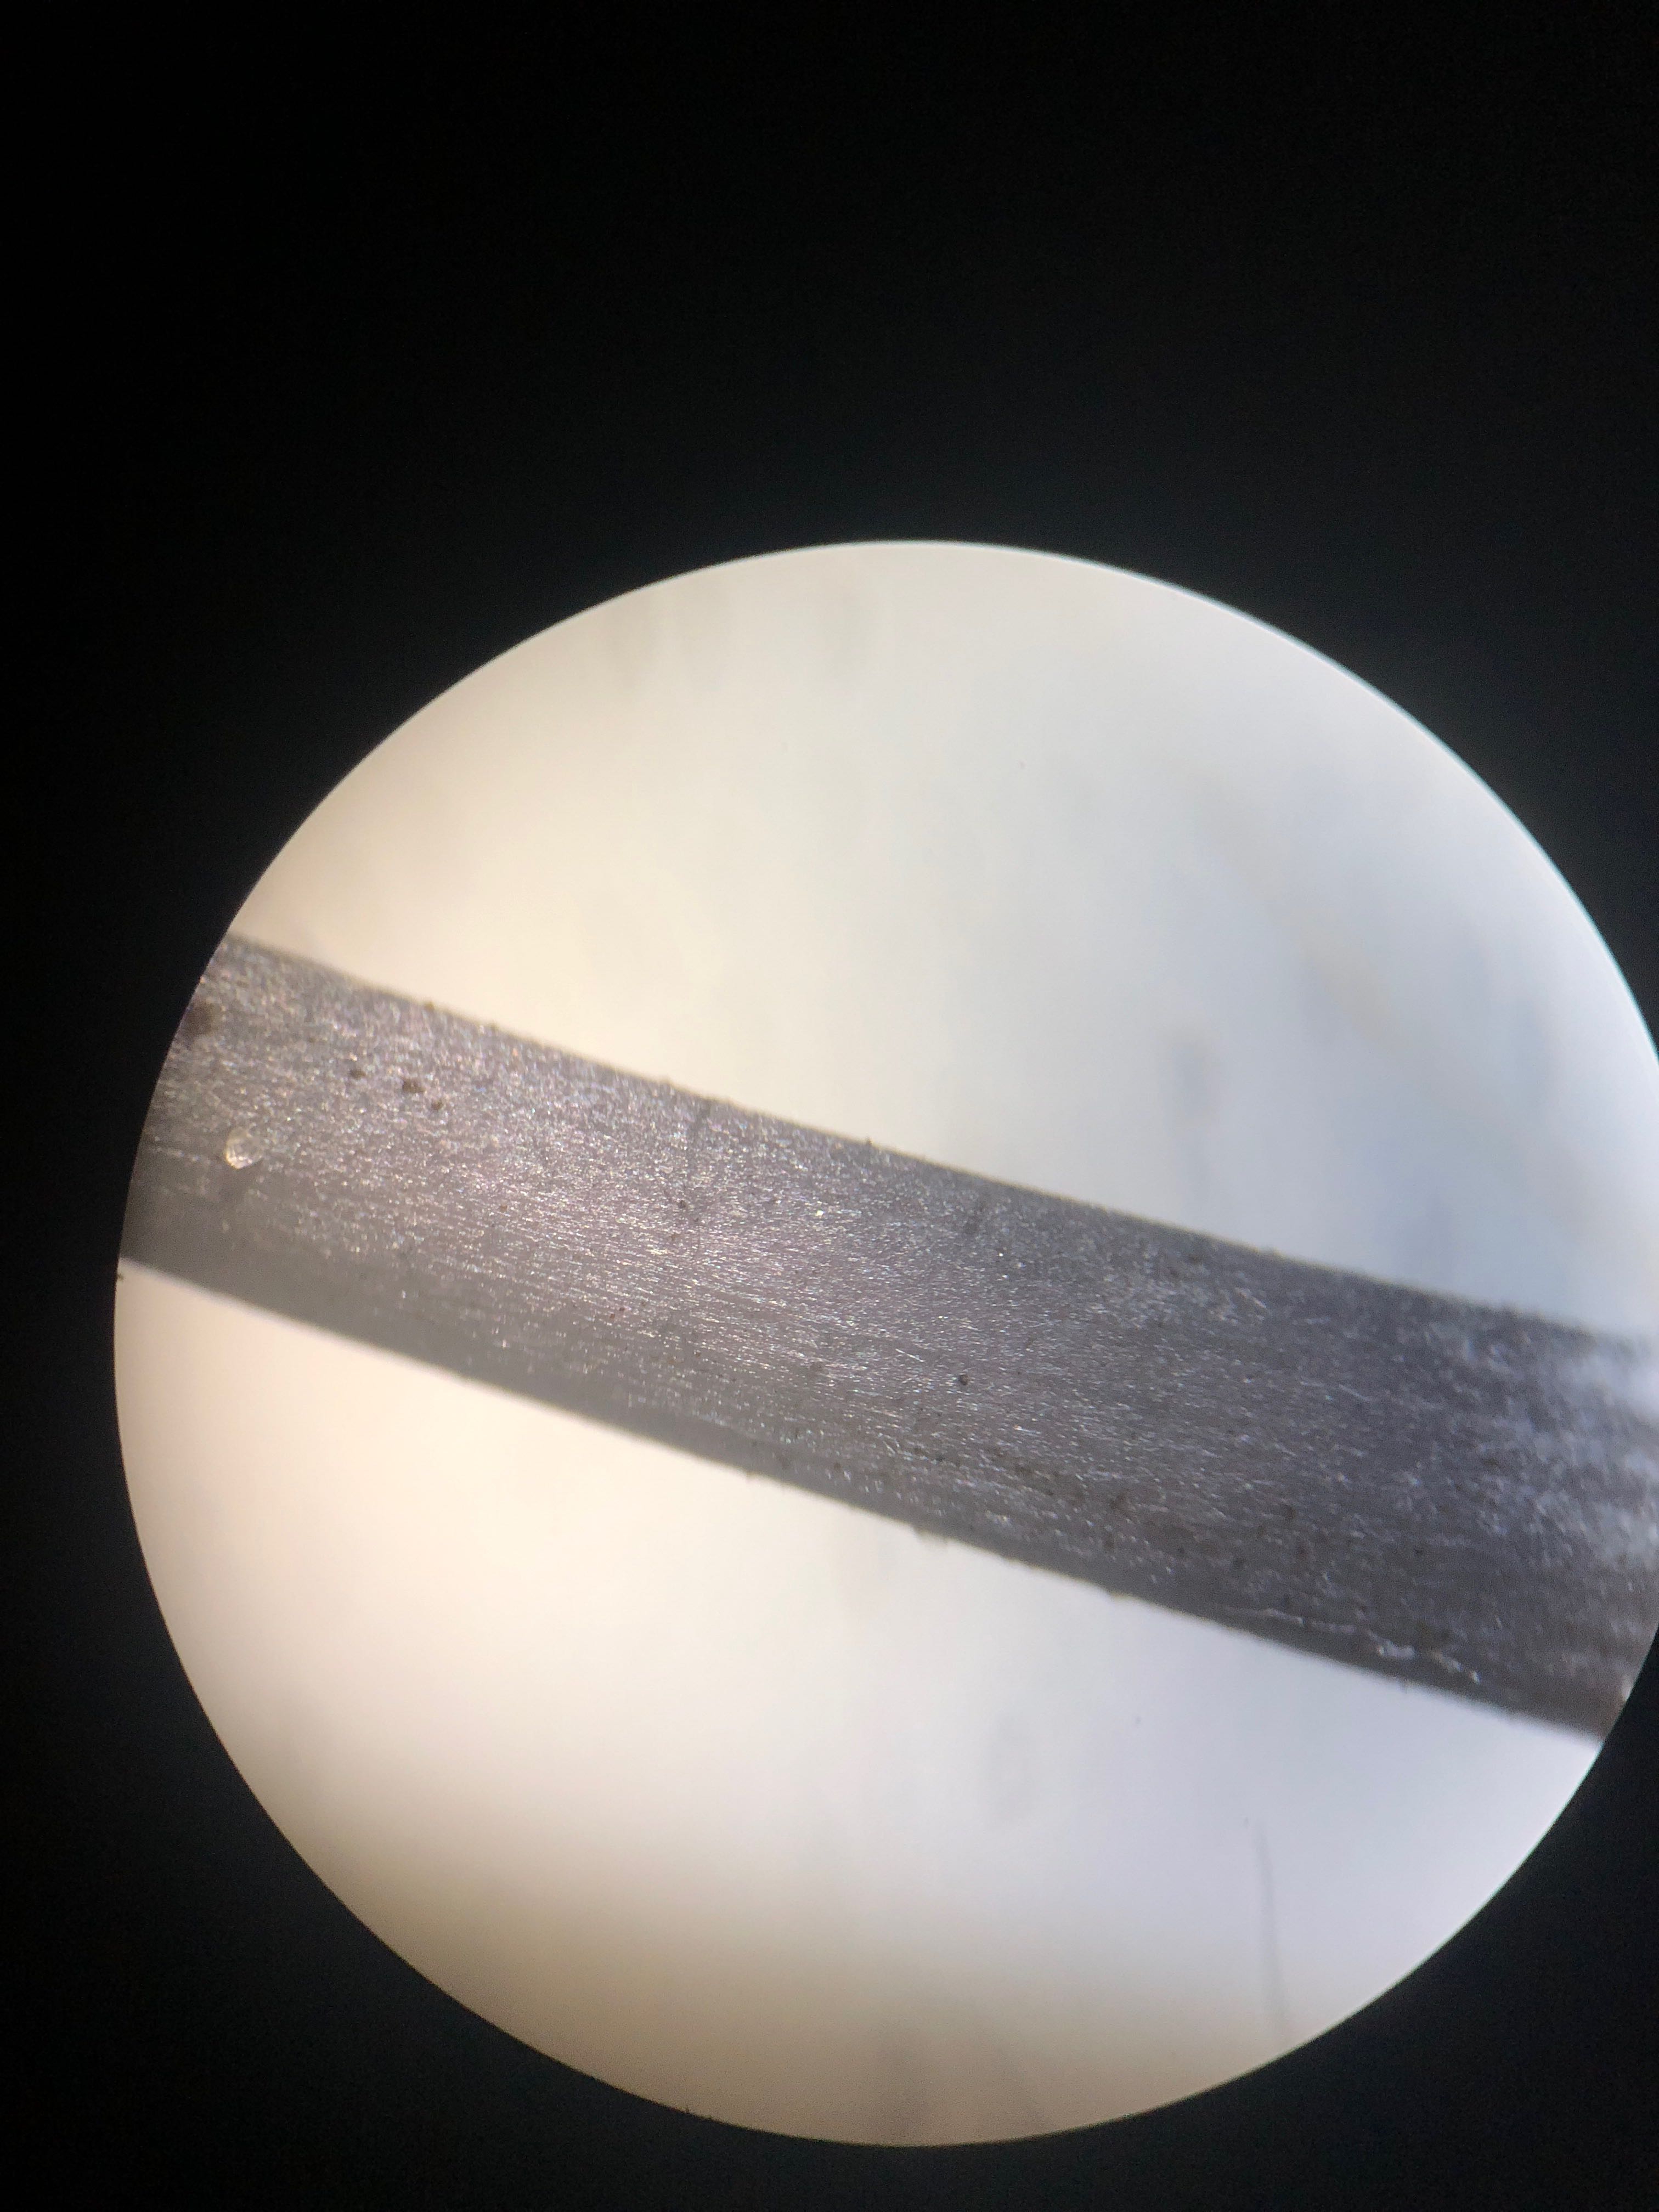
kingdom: Fungi
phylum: Basidiomycota
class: Agaricomycetes
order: Agaricales
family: Entolomataceae
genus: Entoloma
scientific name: Entoloma chalybeum
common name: blåbladet rødblad
